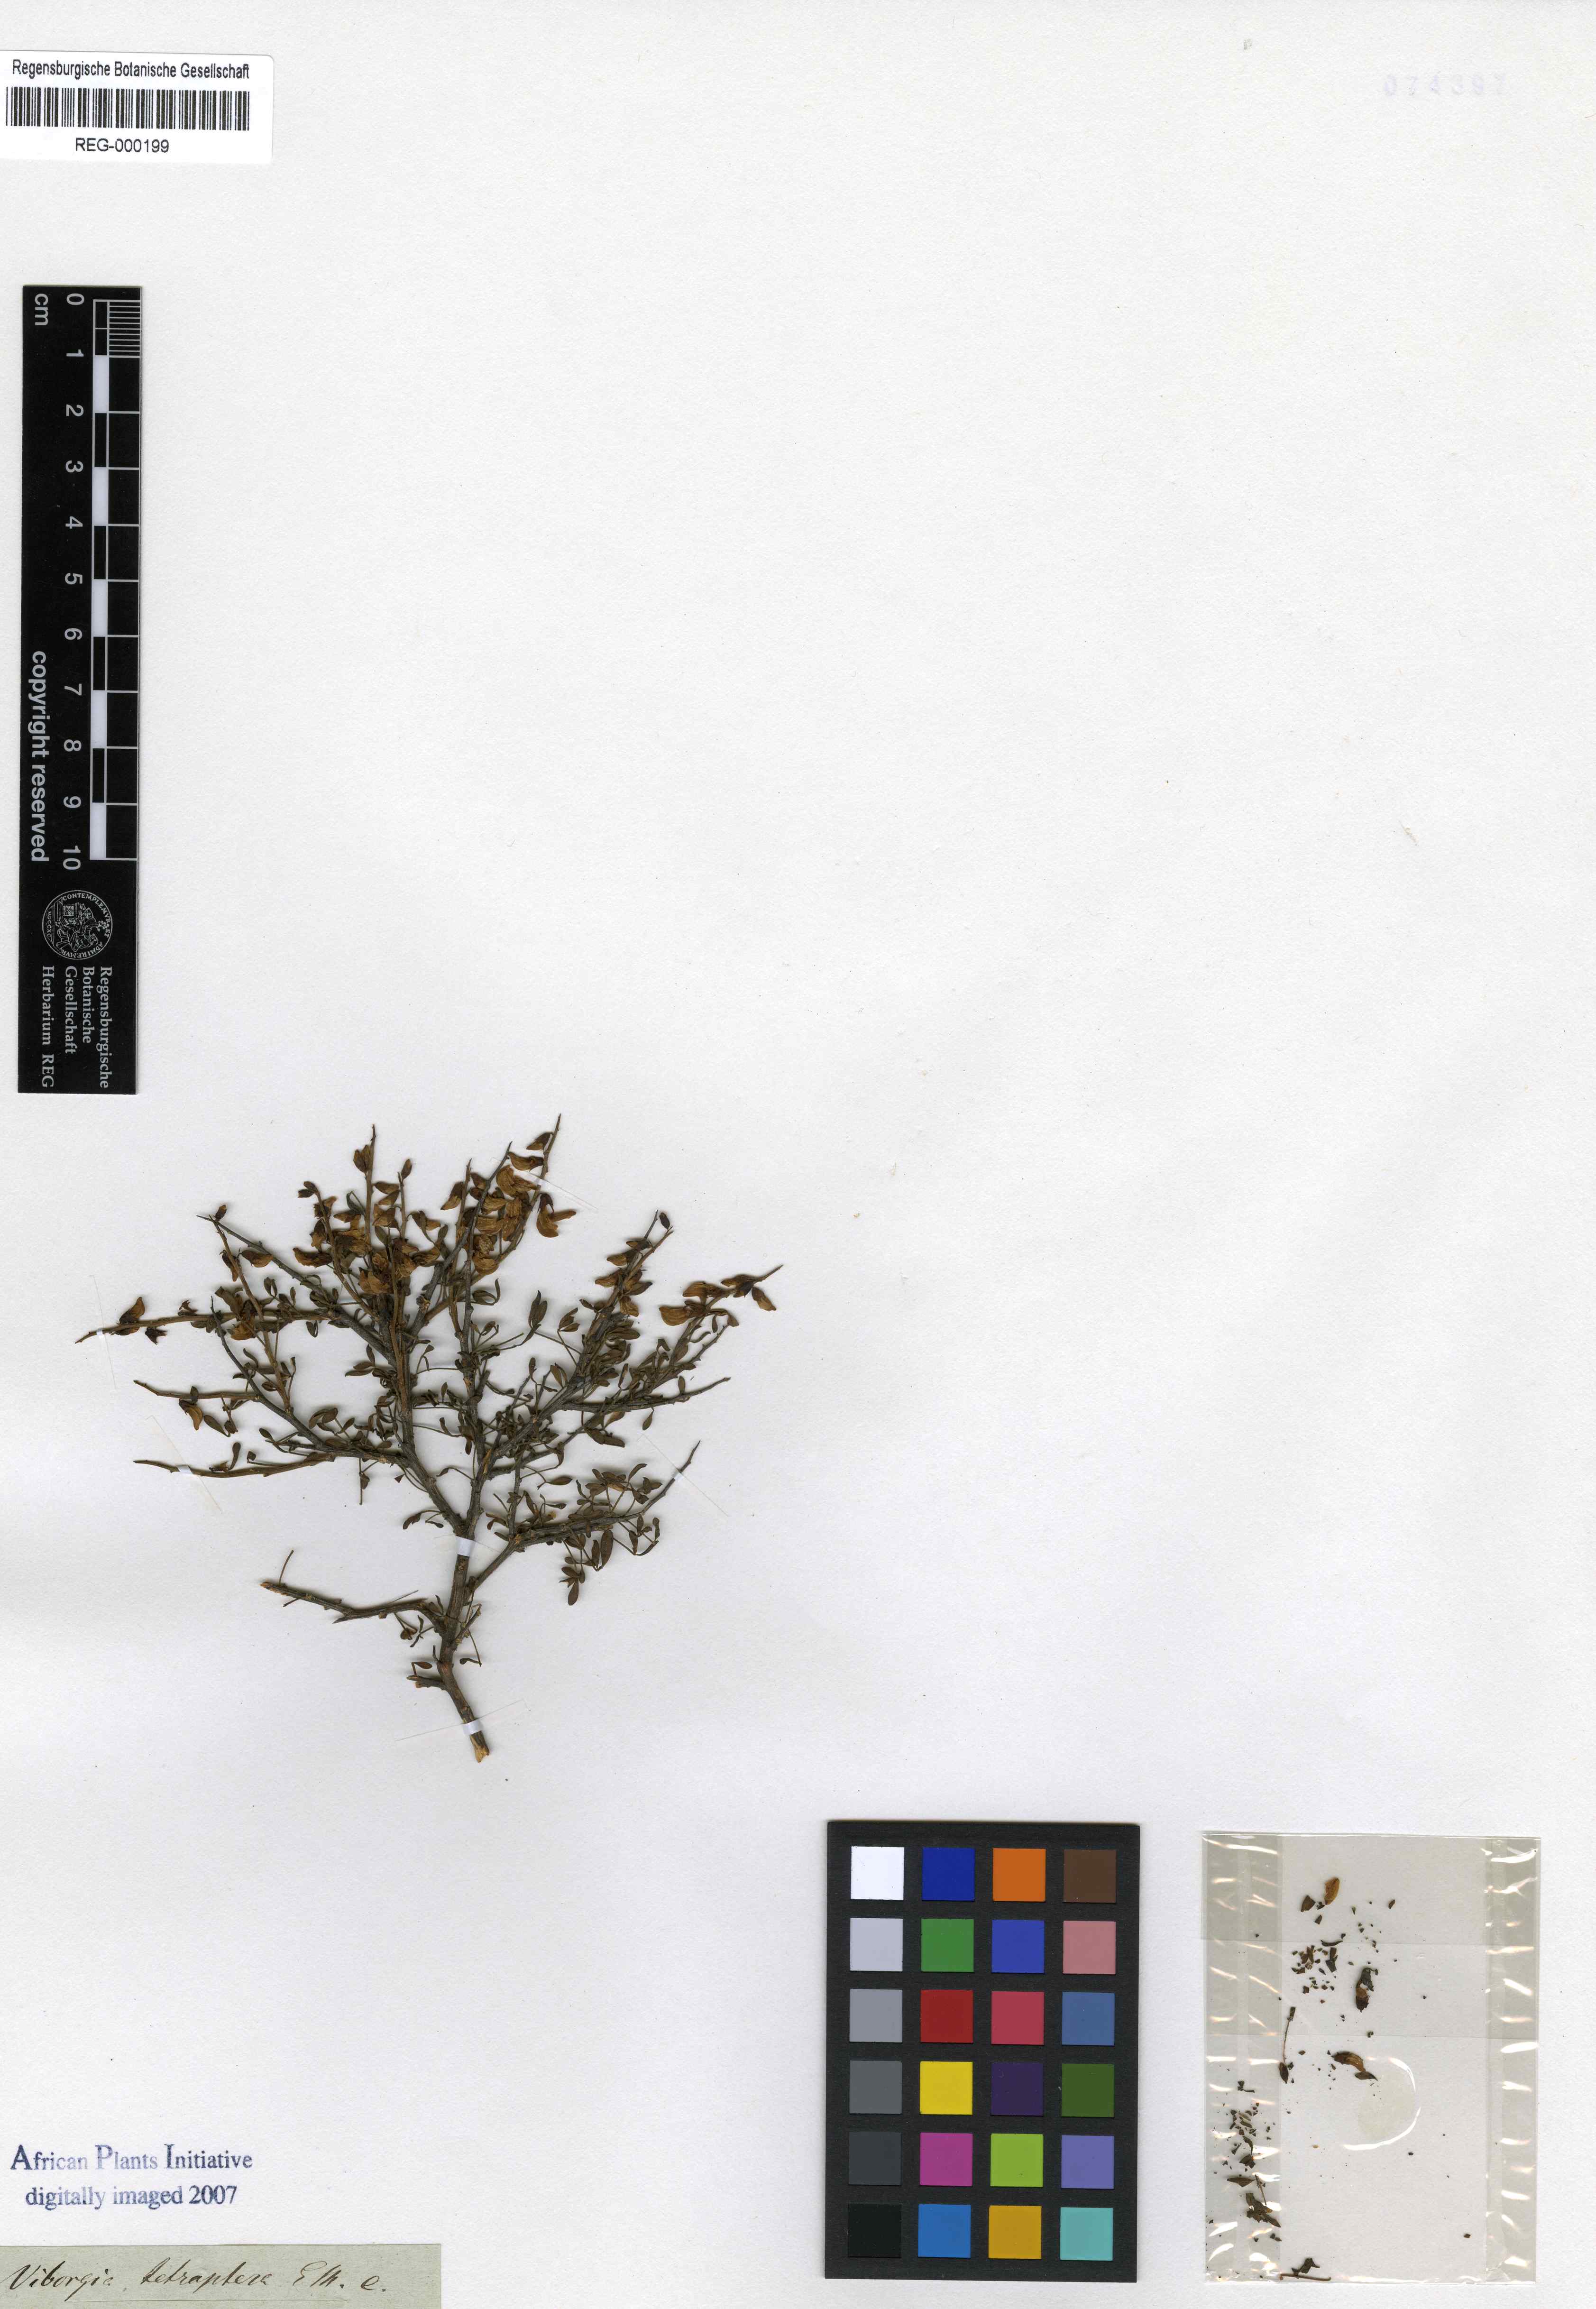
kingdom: Plantae
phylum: Tracheophyta
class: Magnoliopsida
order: Fabales
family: Fabaceae
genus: Wiborgia
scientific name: Wiborgia tetraptera
